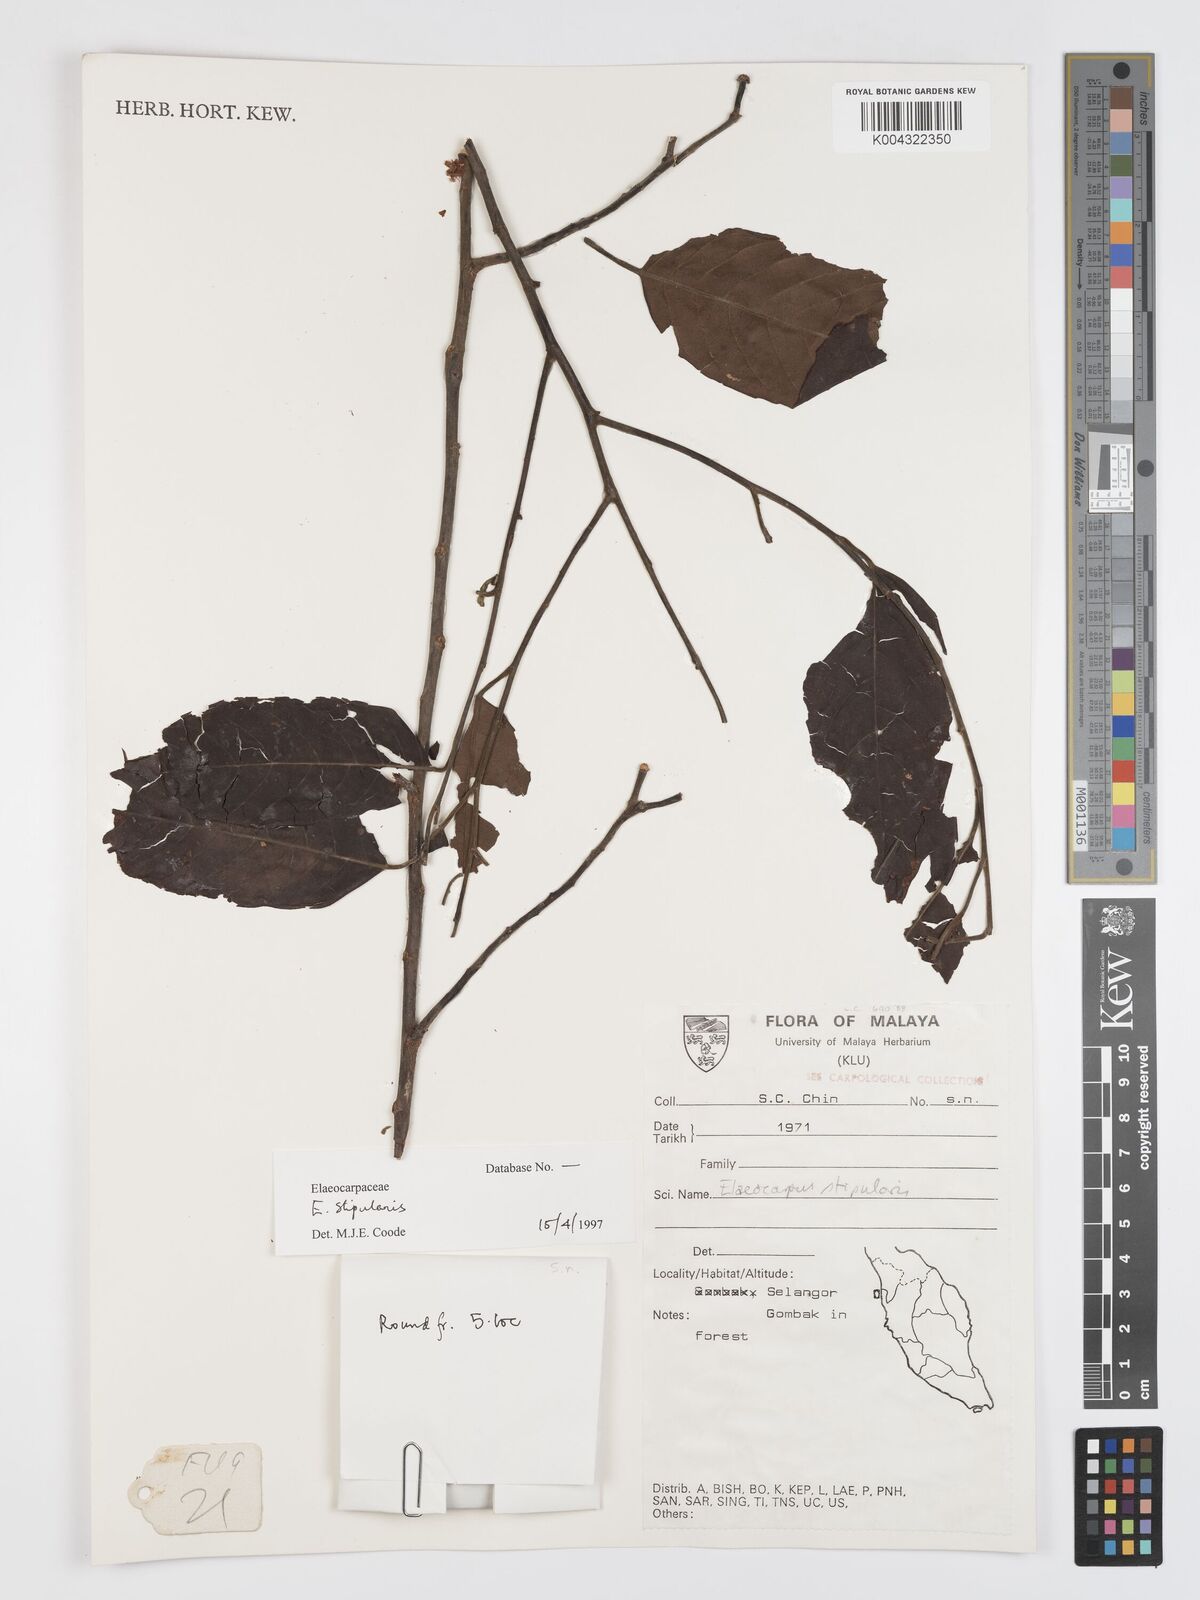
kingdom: Plantae
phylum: Tracheophyta
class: Magnoliopsida
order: Oxalidales
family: Elaeocarpaceae
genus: Elaeocarpus
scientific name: Elaeocarpus stipularis
